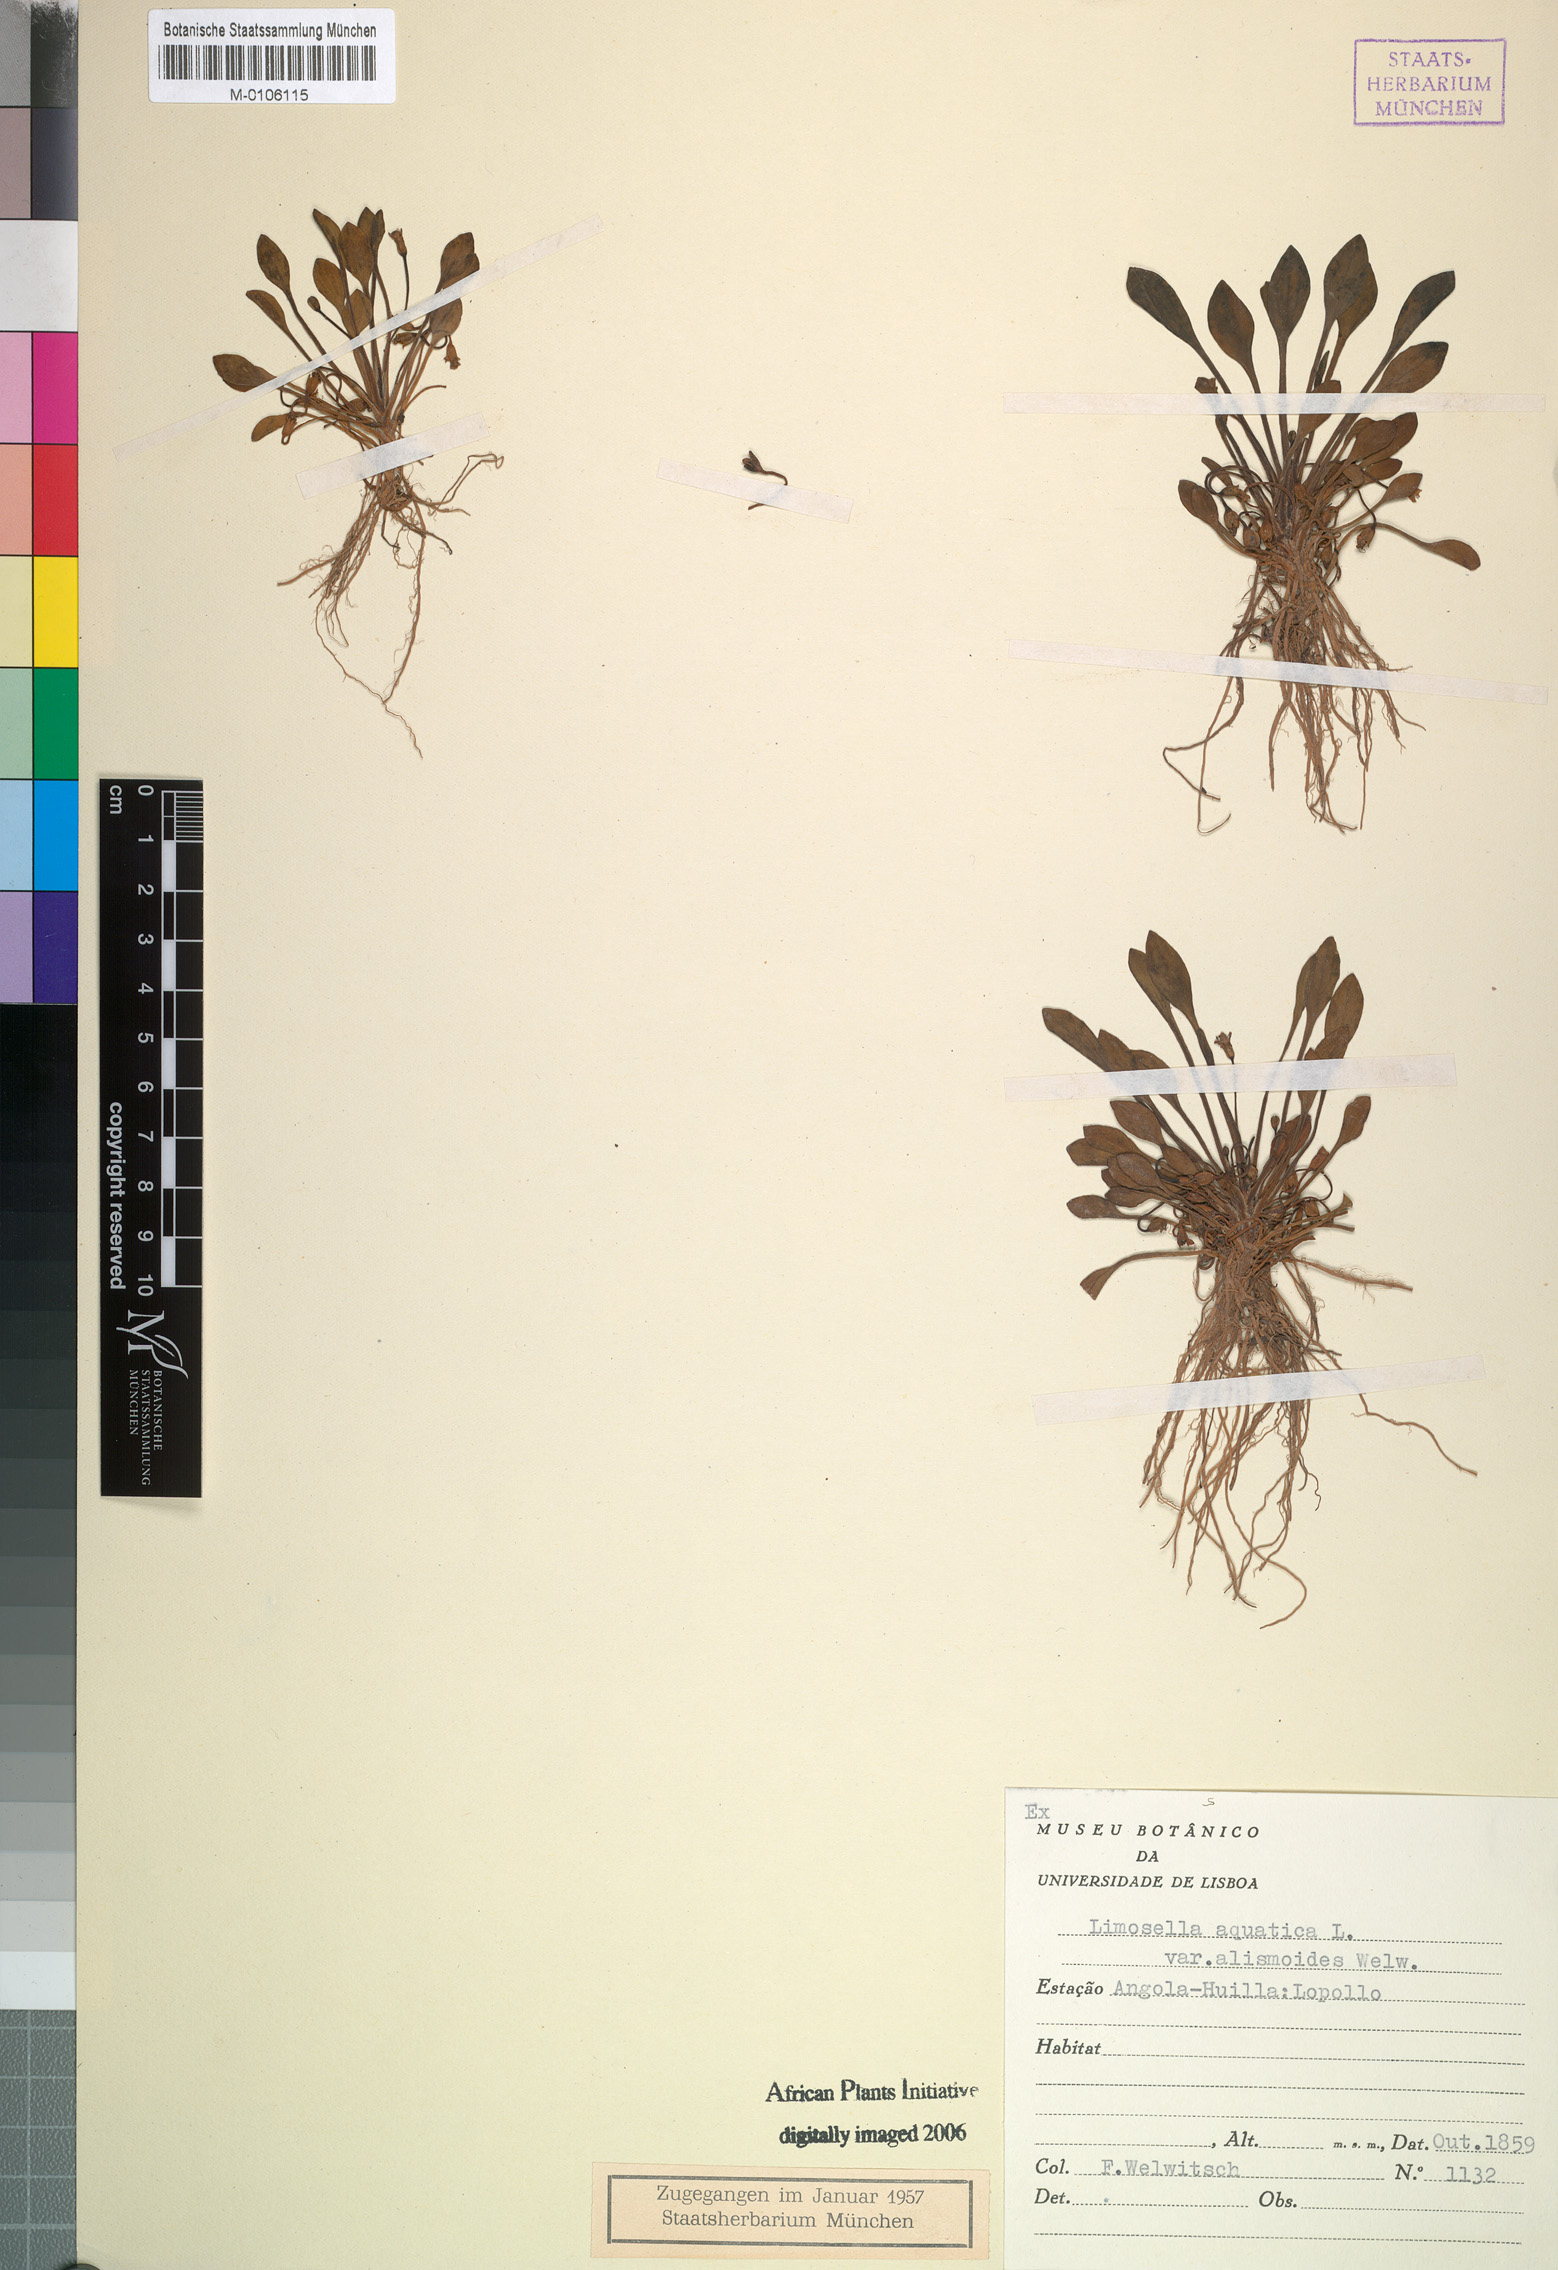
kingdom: Plantae
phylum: Tracheophyta
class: Magnoliopsida
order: Lamiales
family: Scrophulariaceae
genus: Limosella
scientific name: Limosella aquatica
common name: Mudwort
